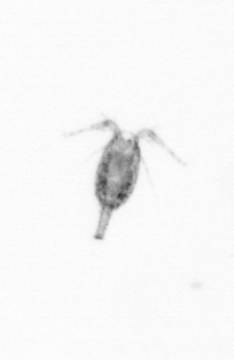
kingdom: Animalia
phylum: Arthropoda
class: Copepoda
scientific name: Copepoda
